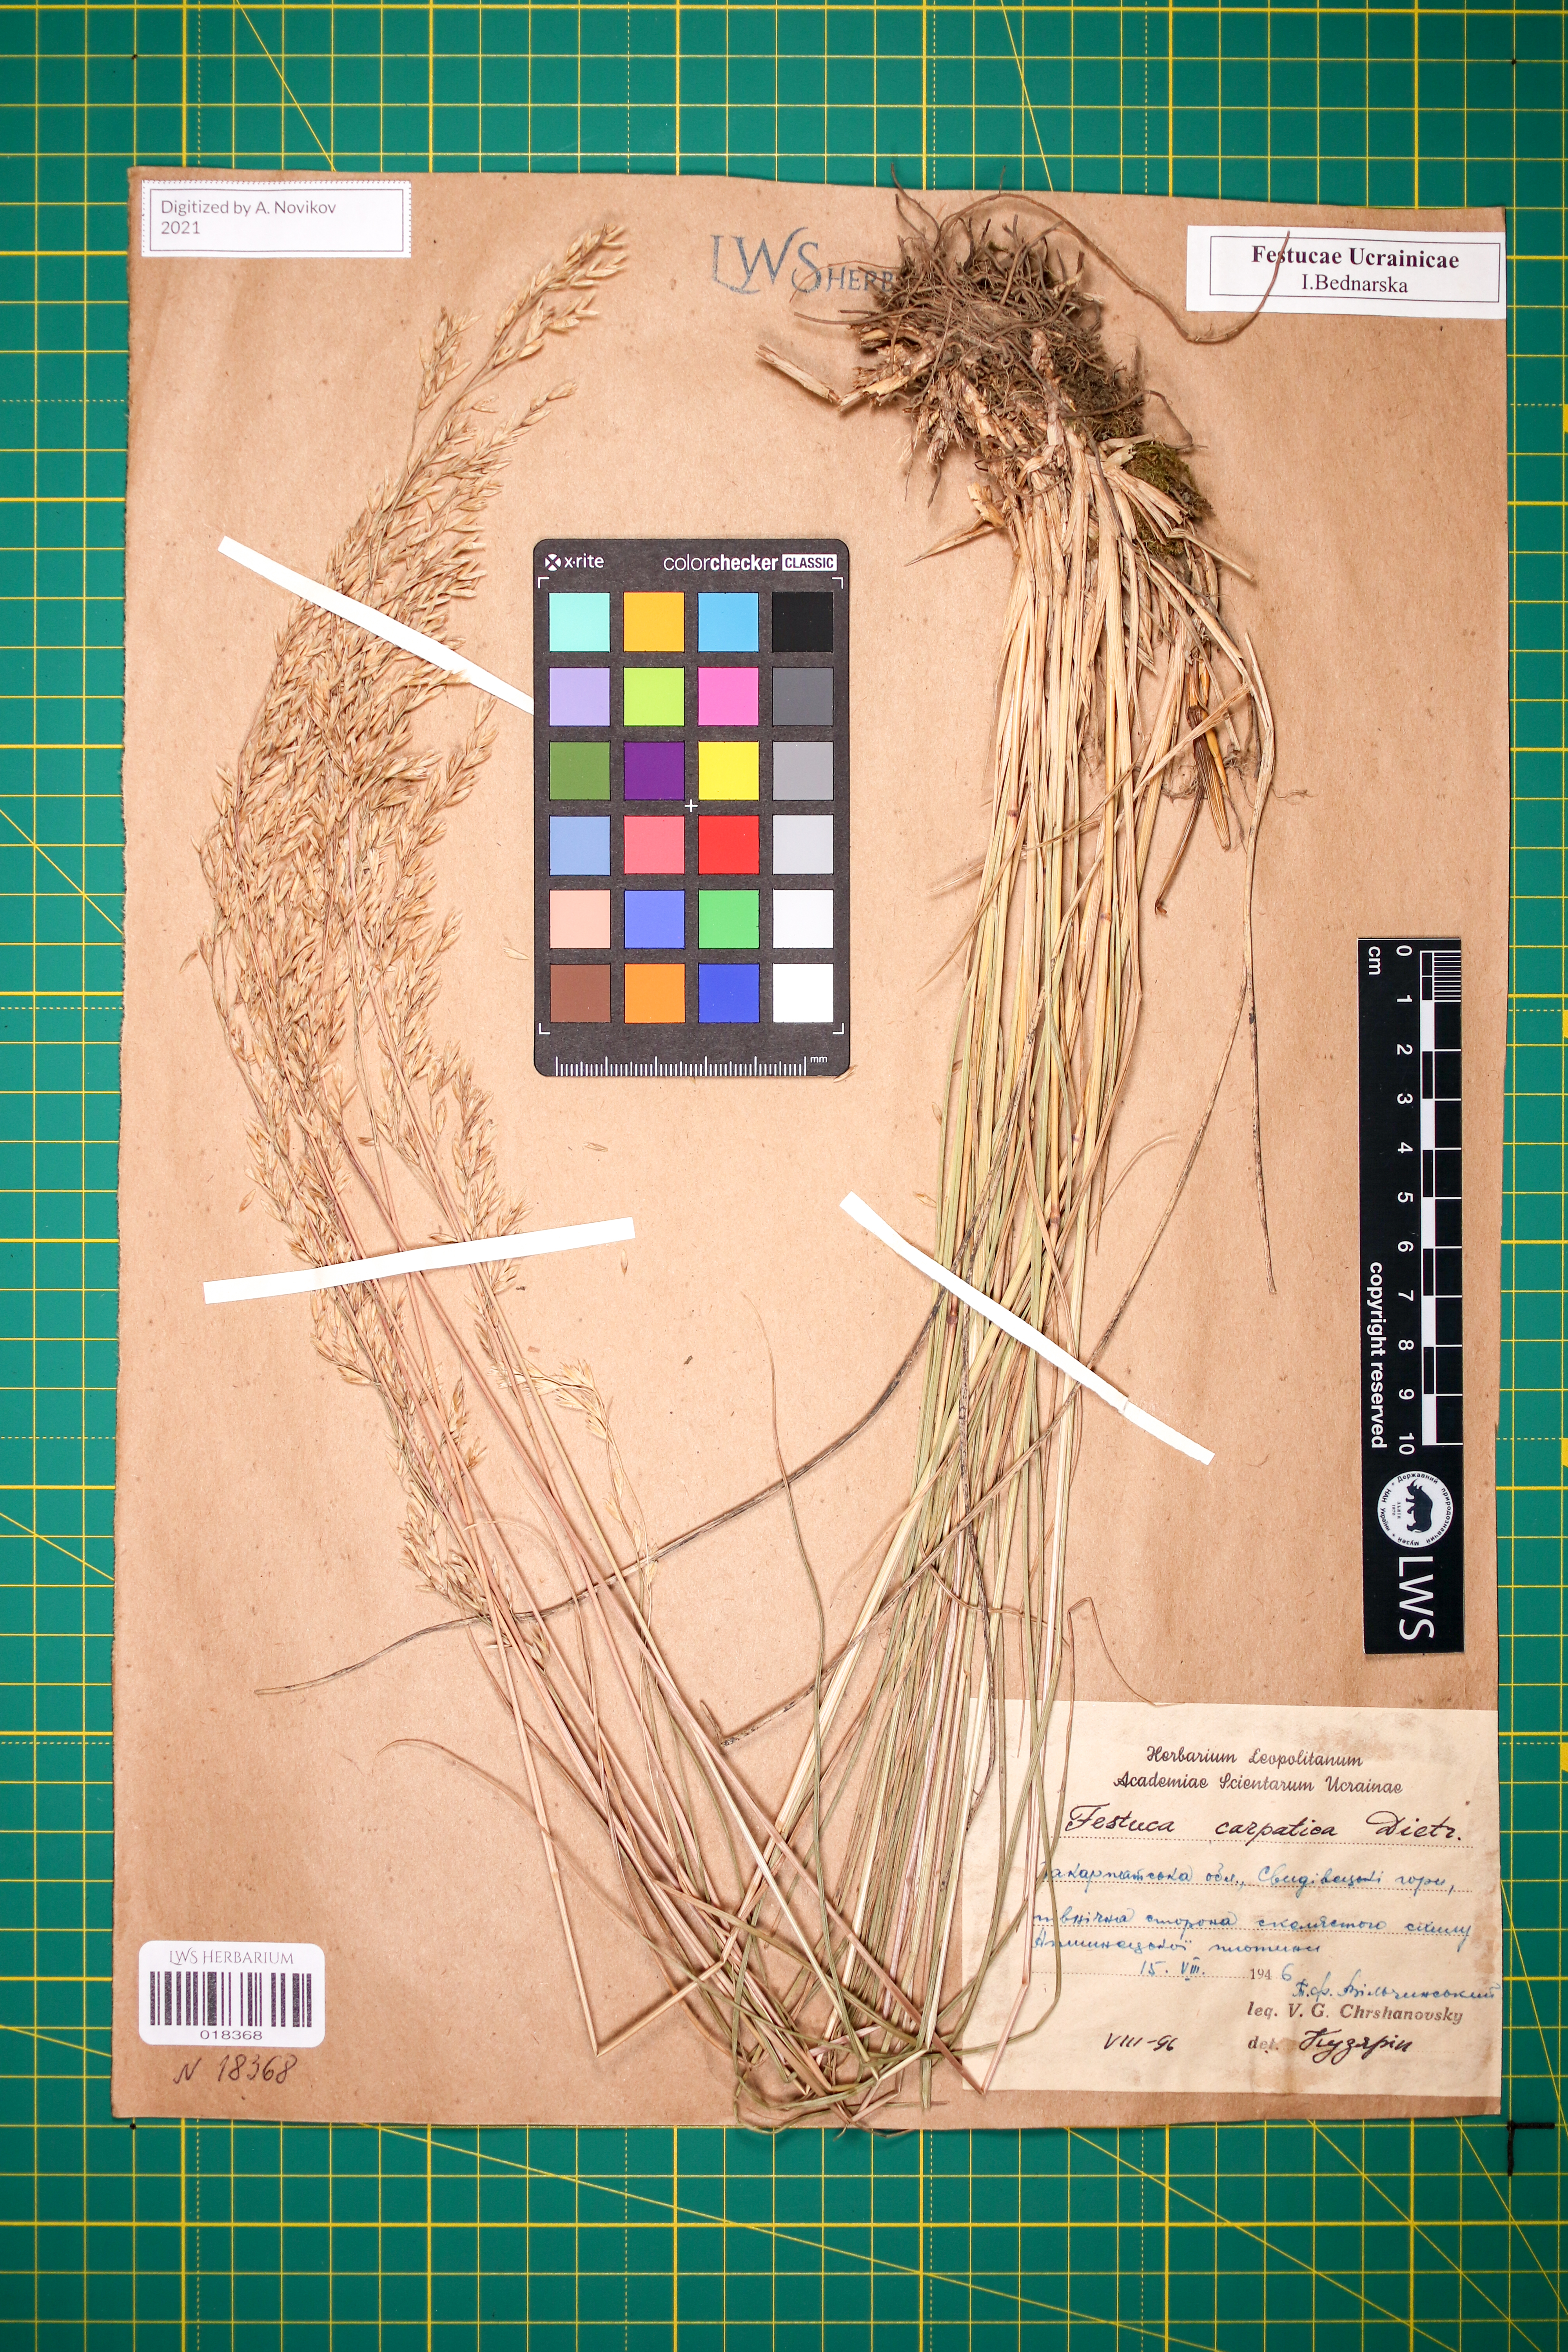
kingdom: Plantae
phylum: Tracheophyta
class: Liliopsida
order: Poales
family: Poaceae
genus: Festuca
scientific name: Festuca carpatica
